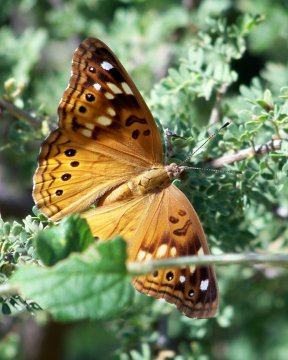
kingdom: Animalia
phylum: Arthropoda
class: Insecta
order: Lepidoptera
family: Nymphalidae
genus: Asterocampa
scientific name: Asterocampa celtis
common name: Hackberry Emperor
